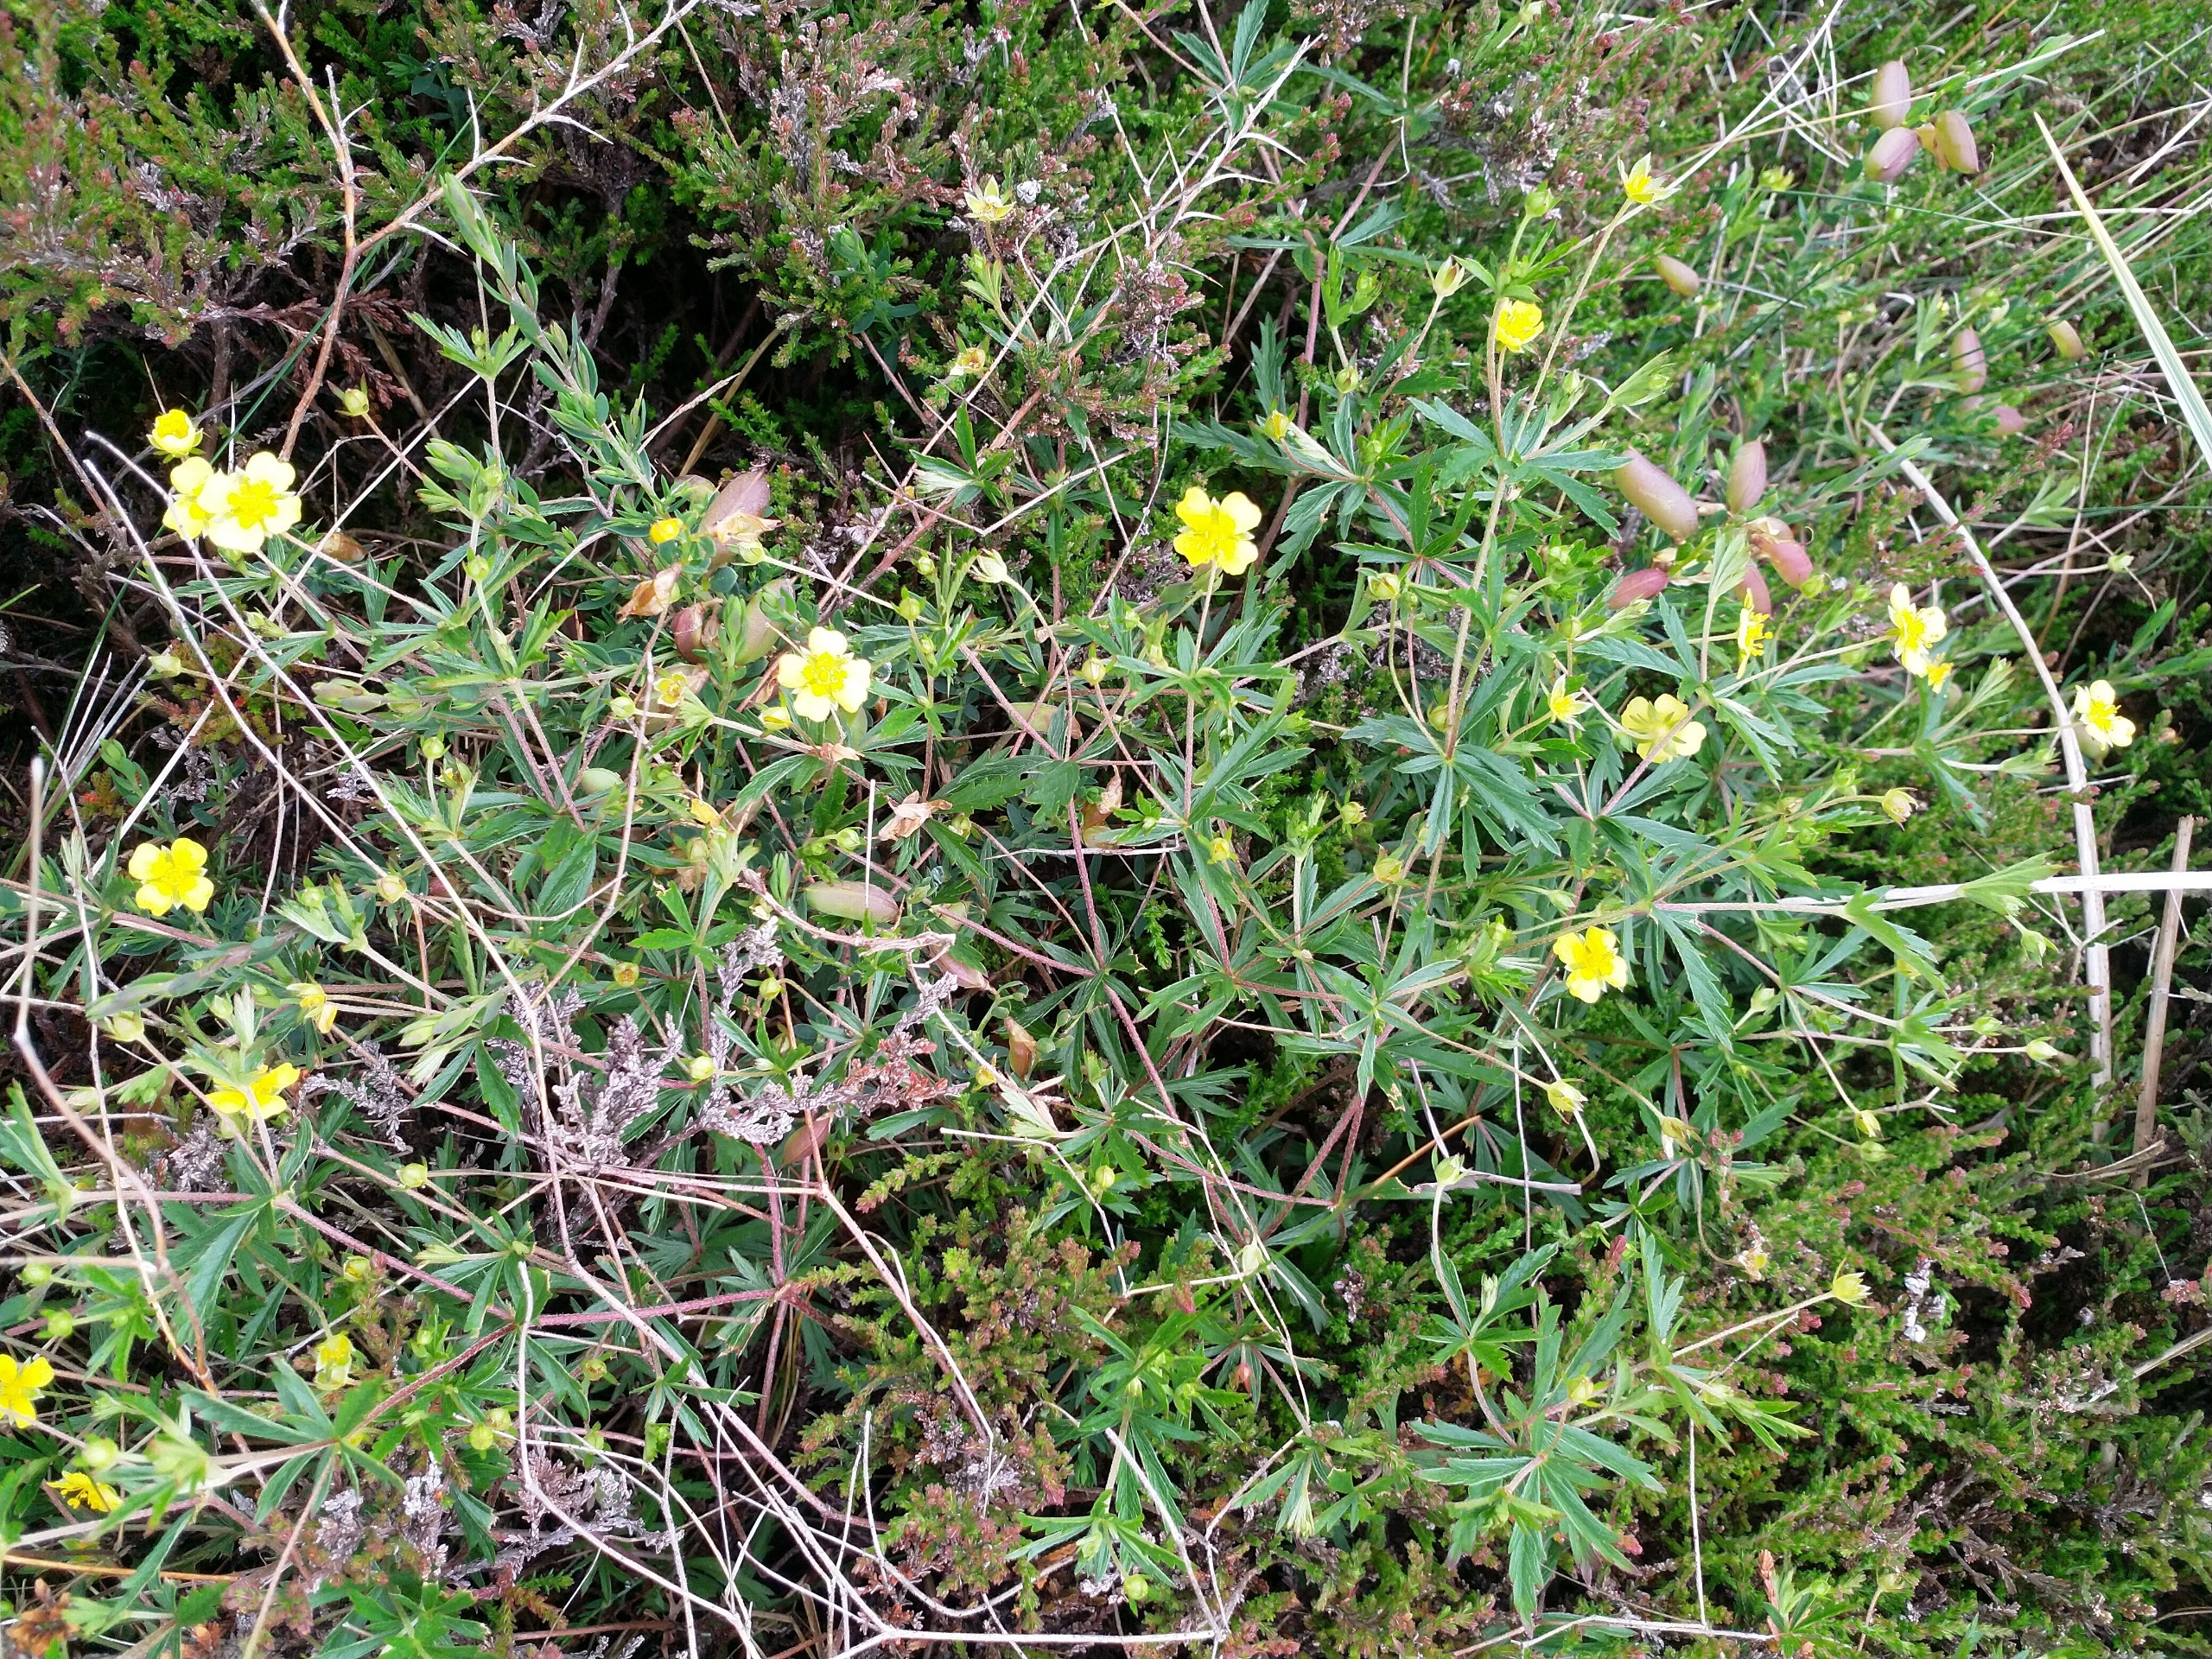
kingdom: Plantae
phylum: Tracheophyta
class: Magnoliopsida
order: Rosales
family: Rosaceae
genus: Potentilla
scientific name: Potentilla erecta
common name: Tormentil
